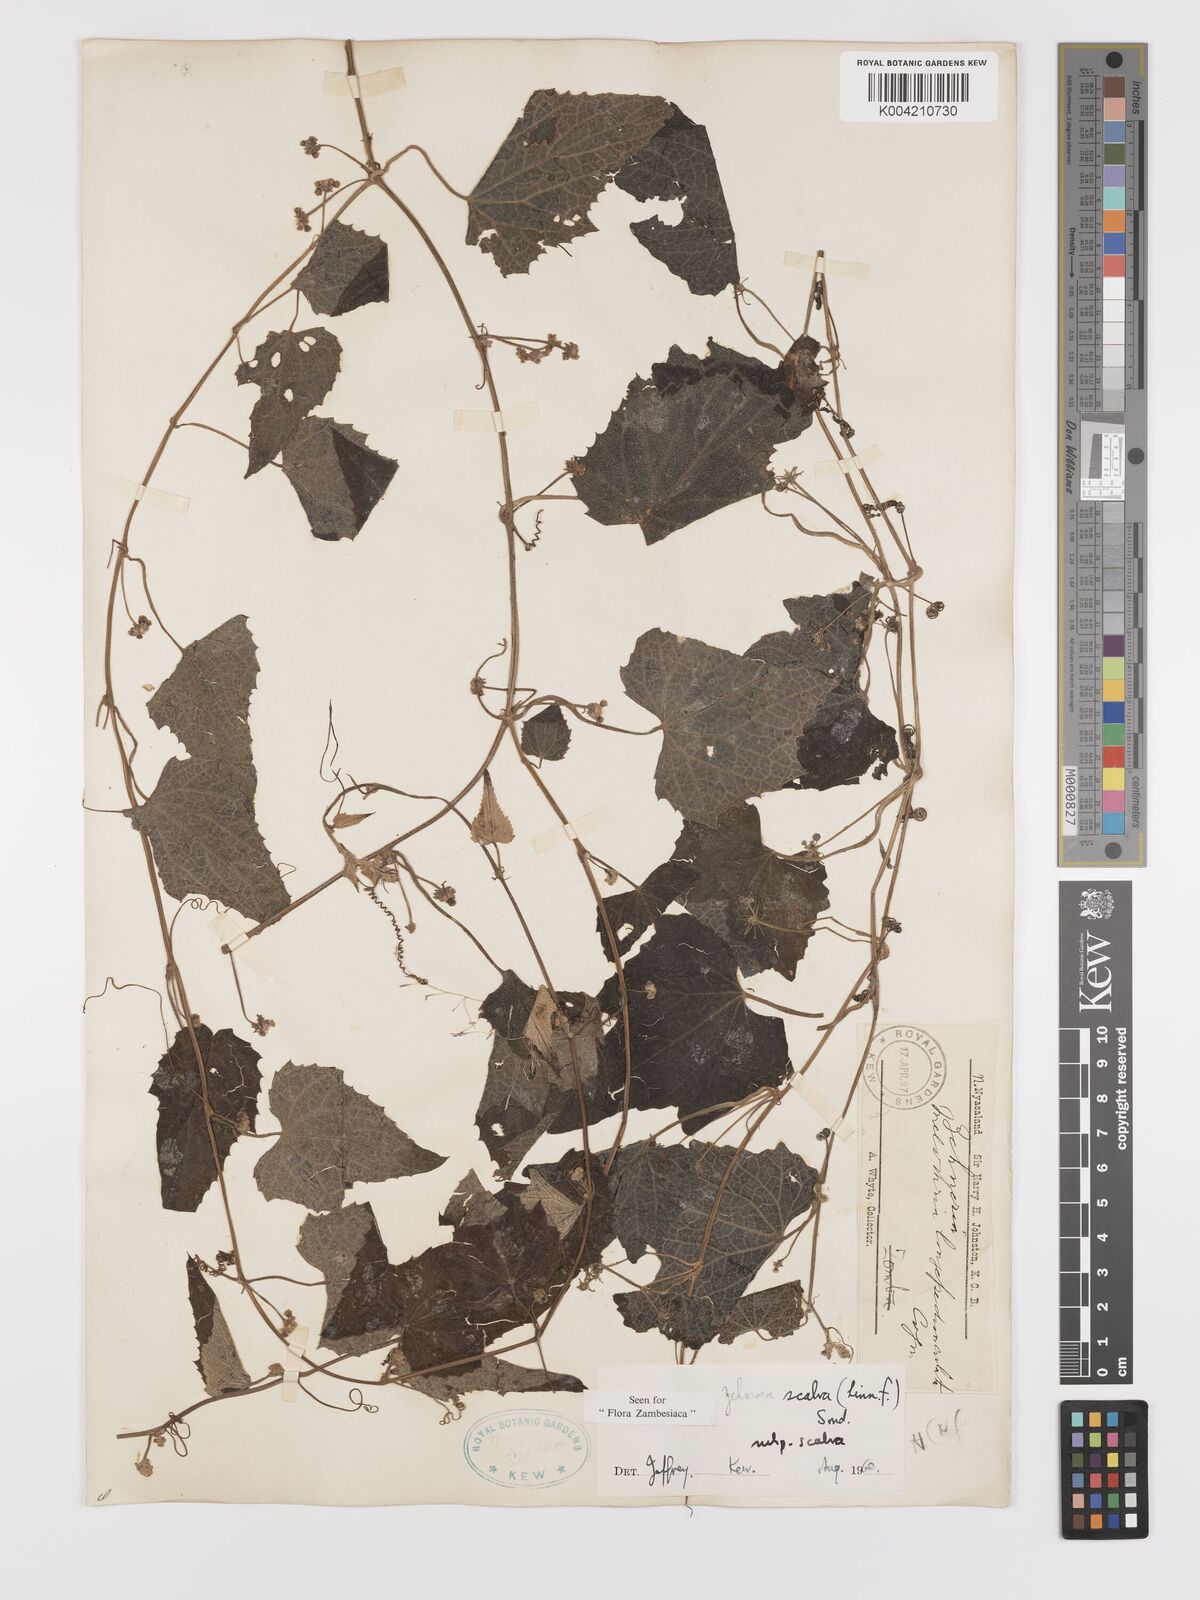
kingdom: Plantae
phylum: Tracheophyta
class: Magnoliopsida
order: Cucurbitales
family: Cucurbitaceae
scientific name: Cucurbitaceae
